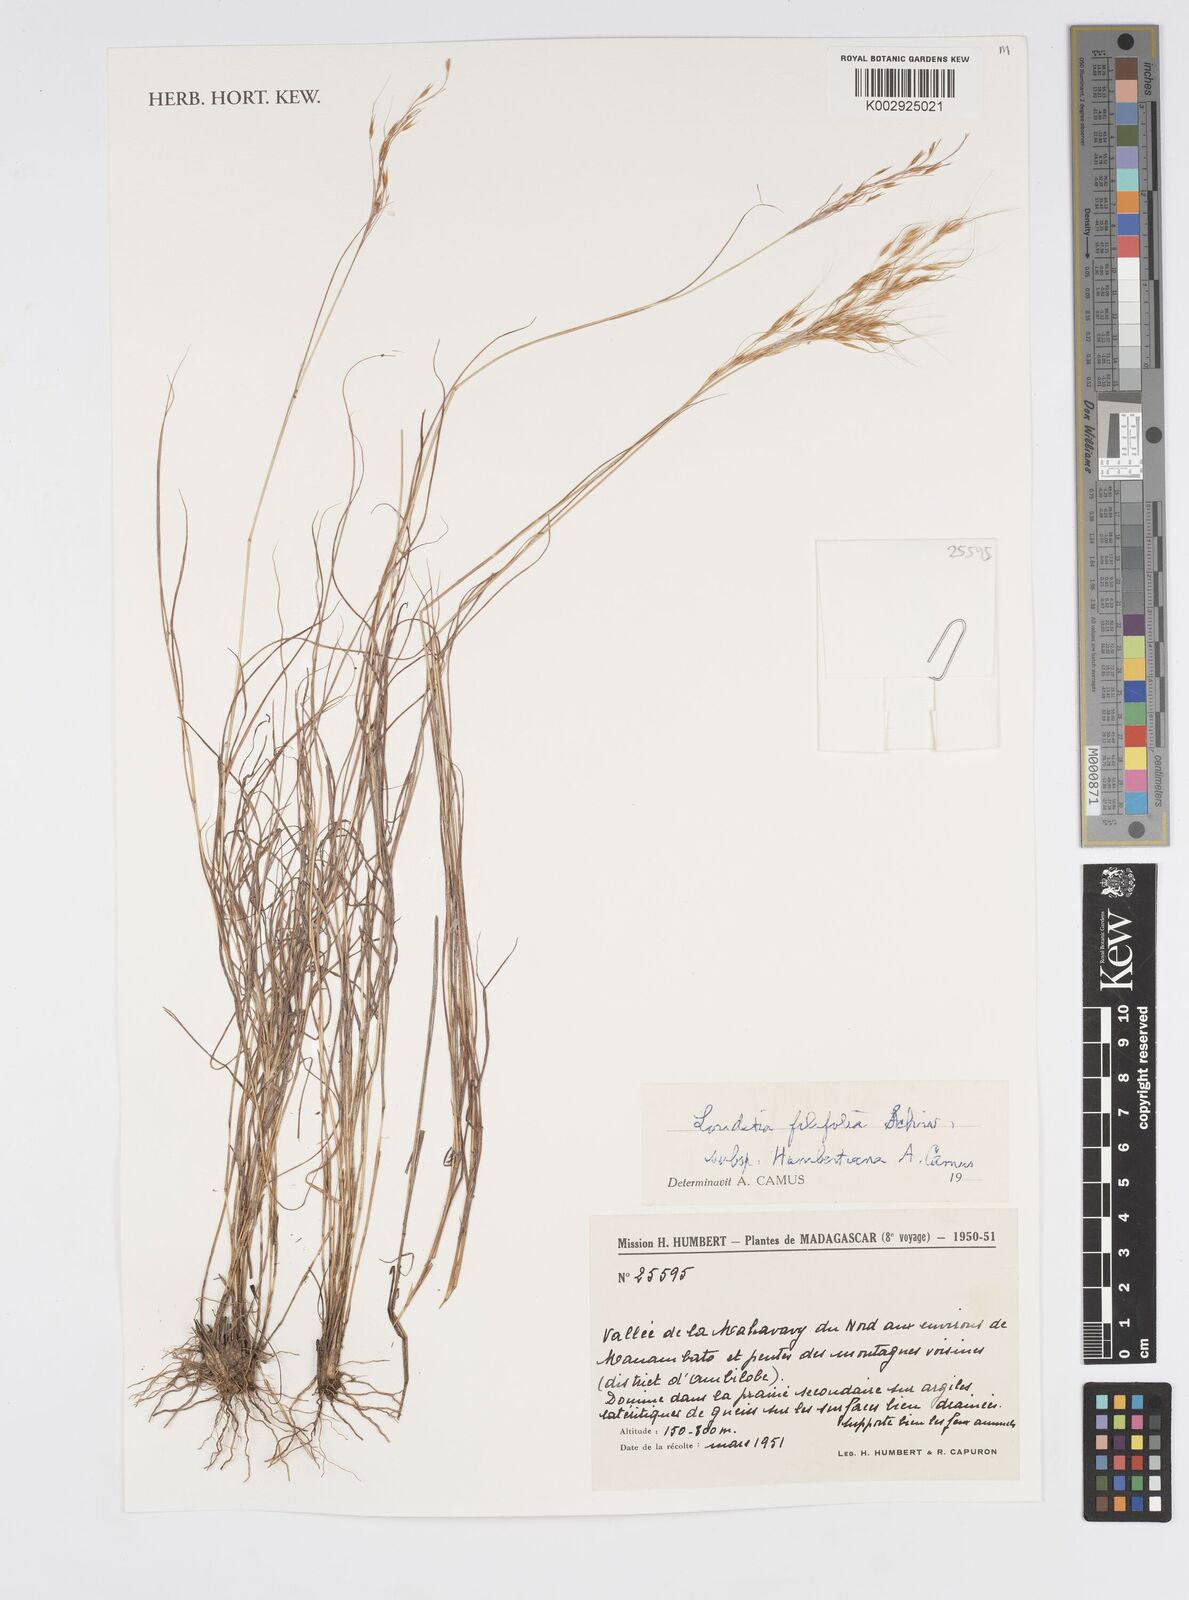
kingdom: Plantae
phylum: Tracheophyta
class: Liliopsida
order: Poales
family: Poaceae
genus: Loudetia
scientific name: Loudetia filifolia
